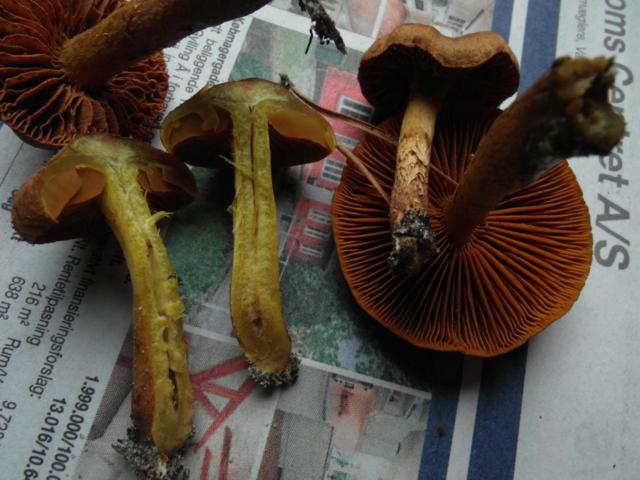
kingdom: Fungi
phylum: Basidiomycota
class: Agaricomycetes
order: Agaricales
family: Cortinariaceae
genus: Cortinarius
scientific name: Cortinarius malicorius
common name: grønkødet slørhat
